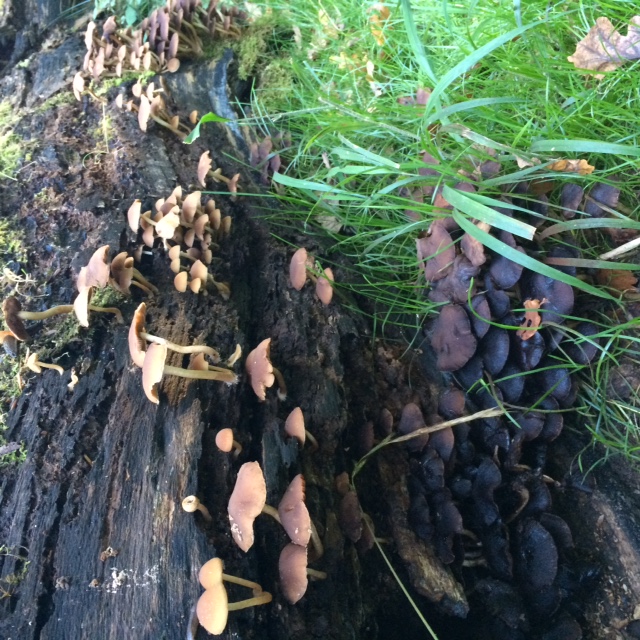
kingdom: Fungi
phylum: Basidiomycota
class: Agaricomycetes
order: Agaricales
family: Psathyrellaceae
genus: Psathyrella
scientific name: Psathyrella piluliformis
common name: lysstokket mørkhat
